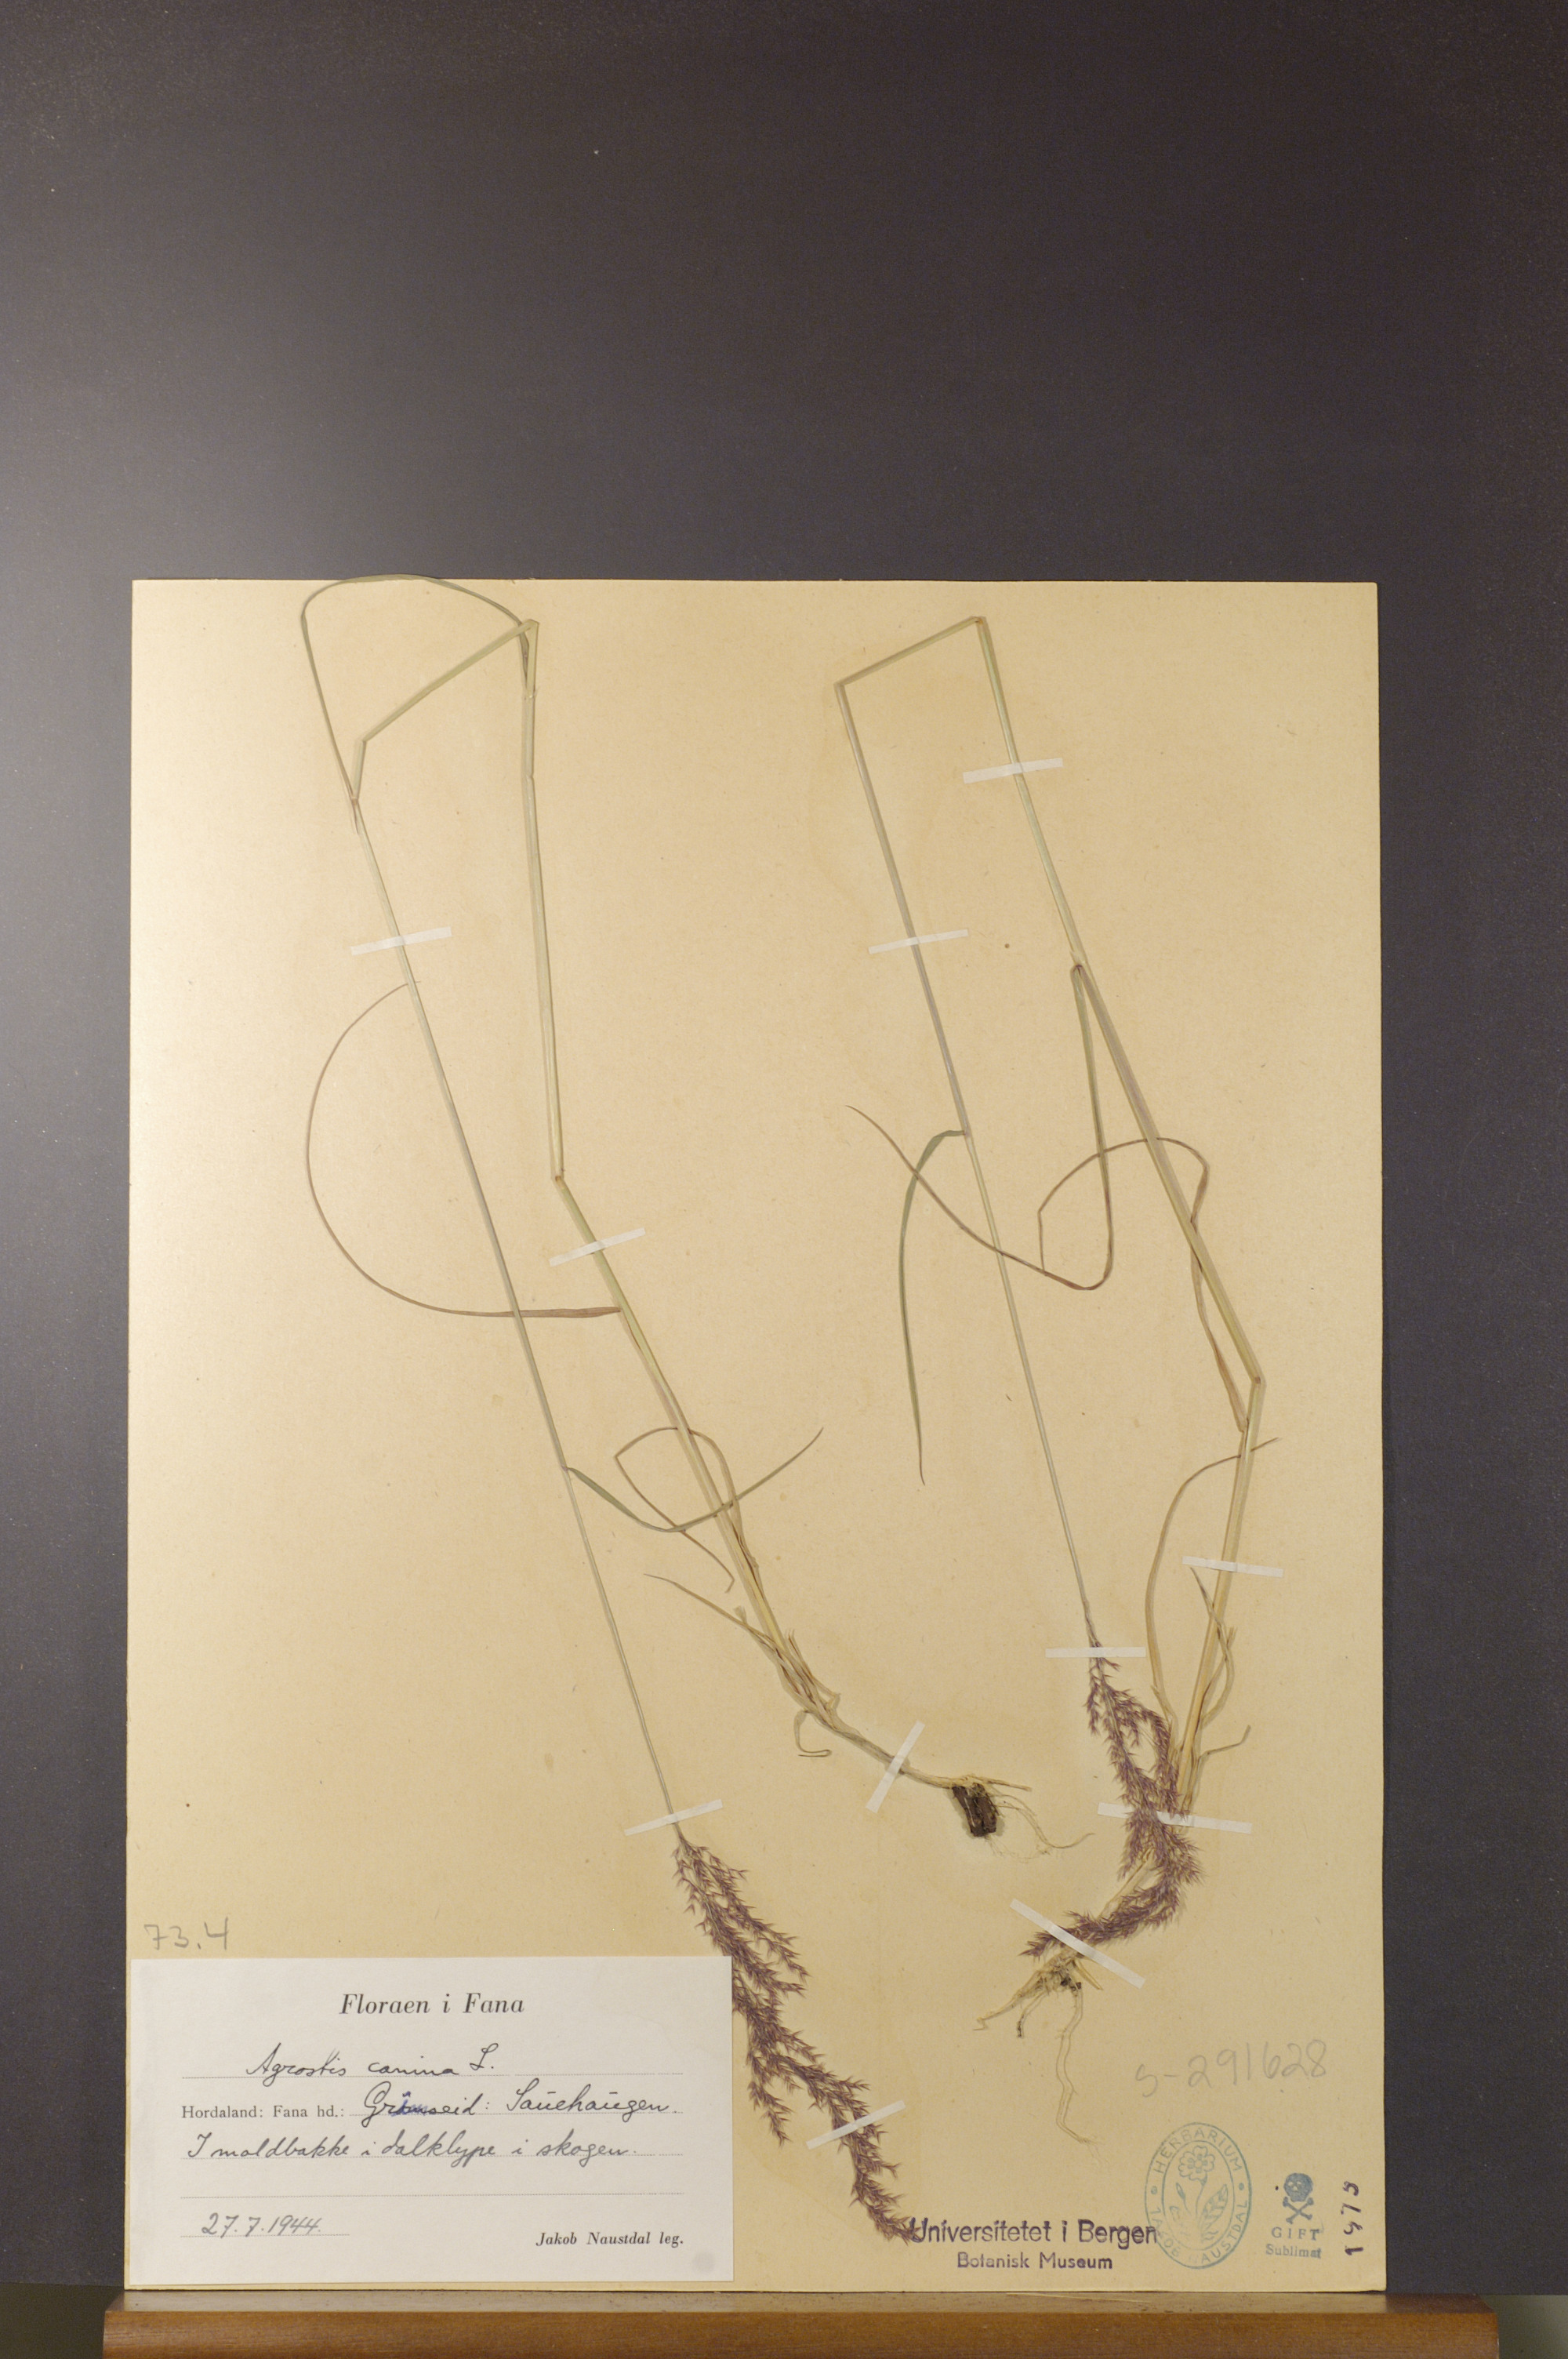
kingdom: Plantae
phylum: Tracheophyta
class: Liliopsida
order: Poales
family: Poaceae
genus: Agrostis
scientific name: Agrostis canina
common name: Velvet bent
